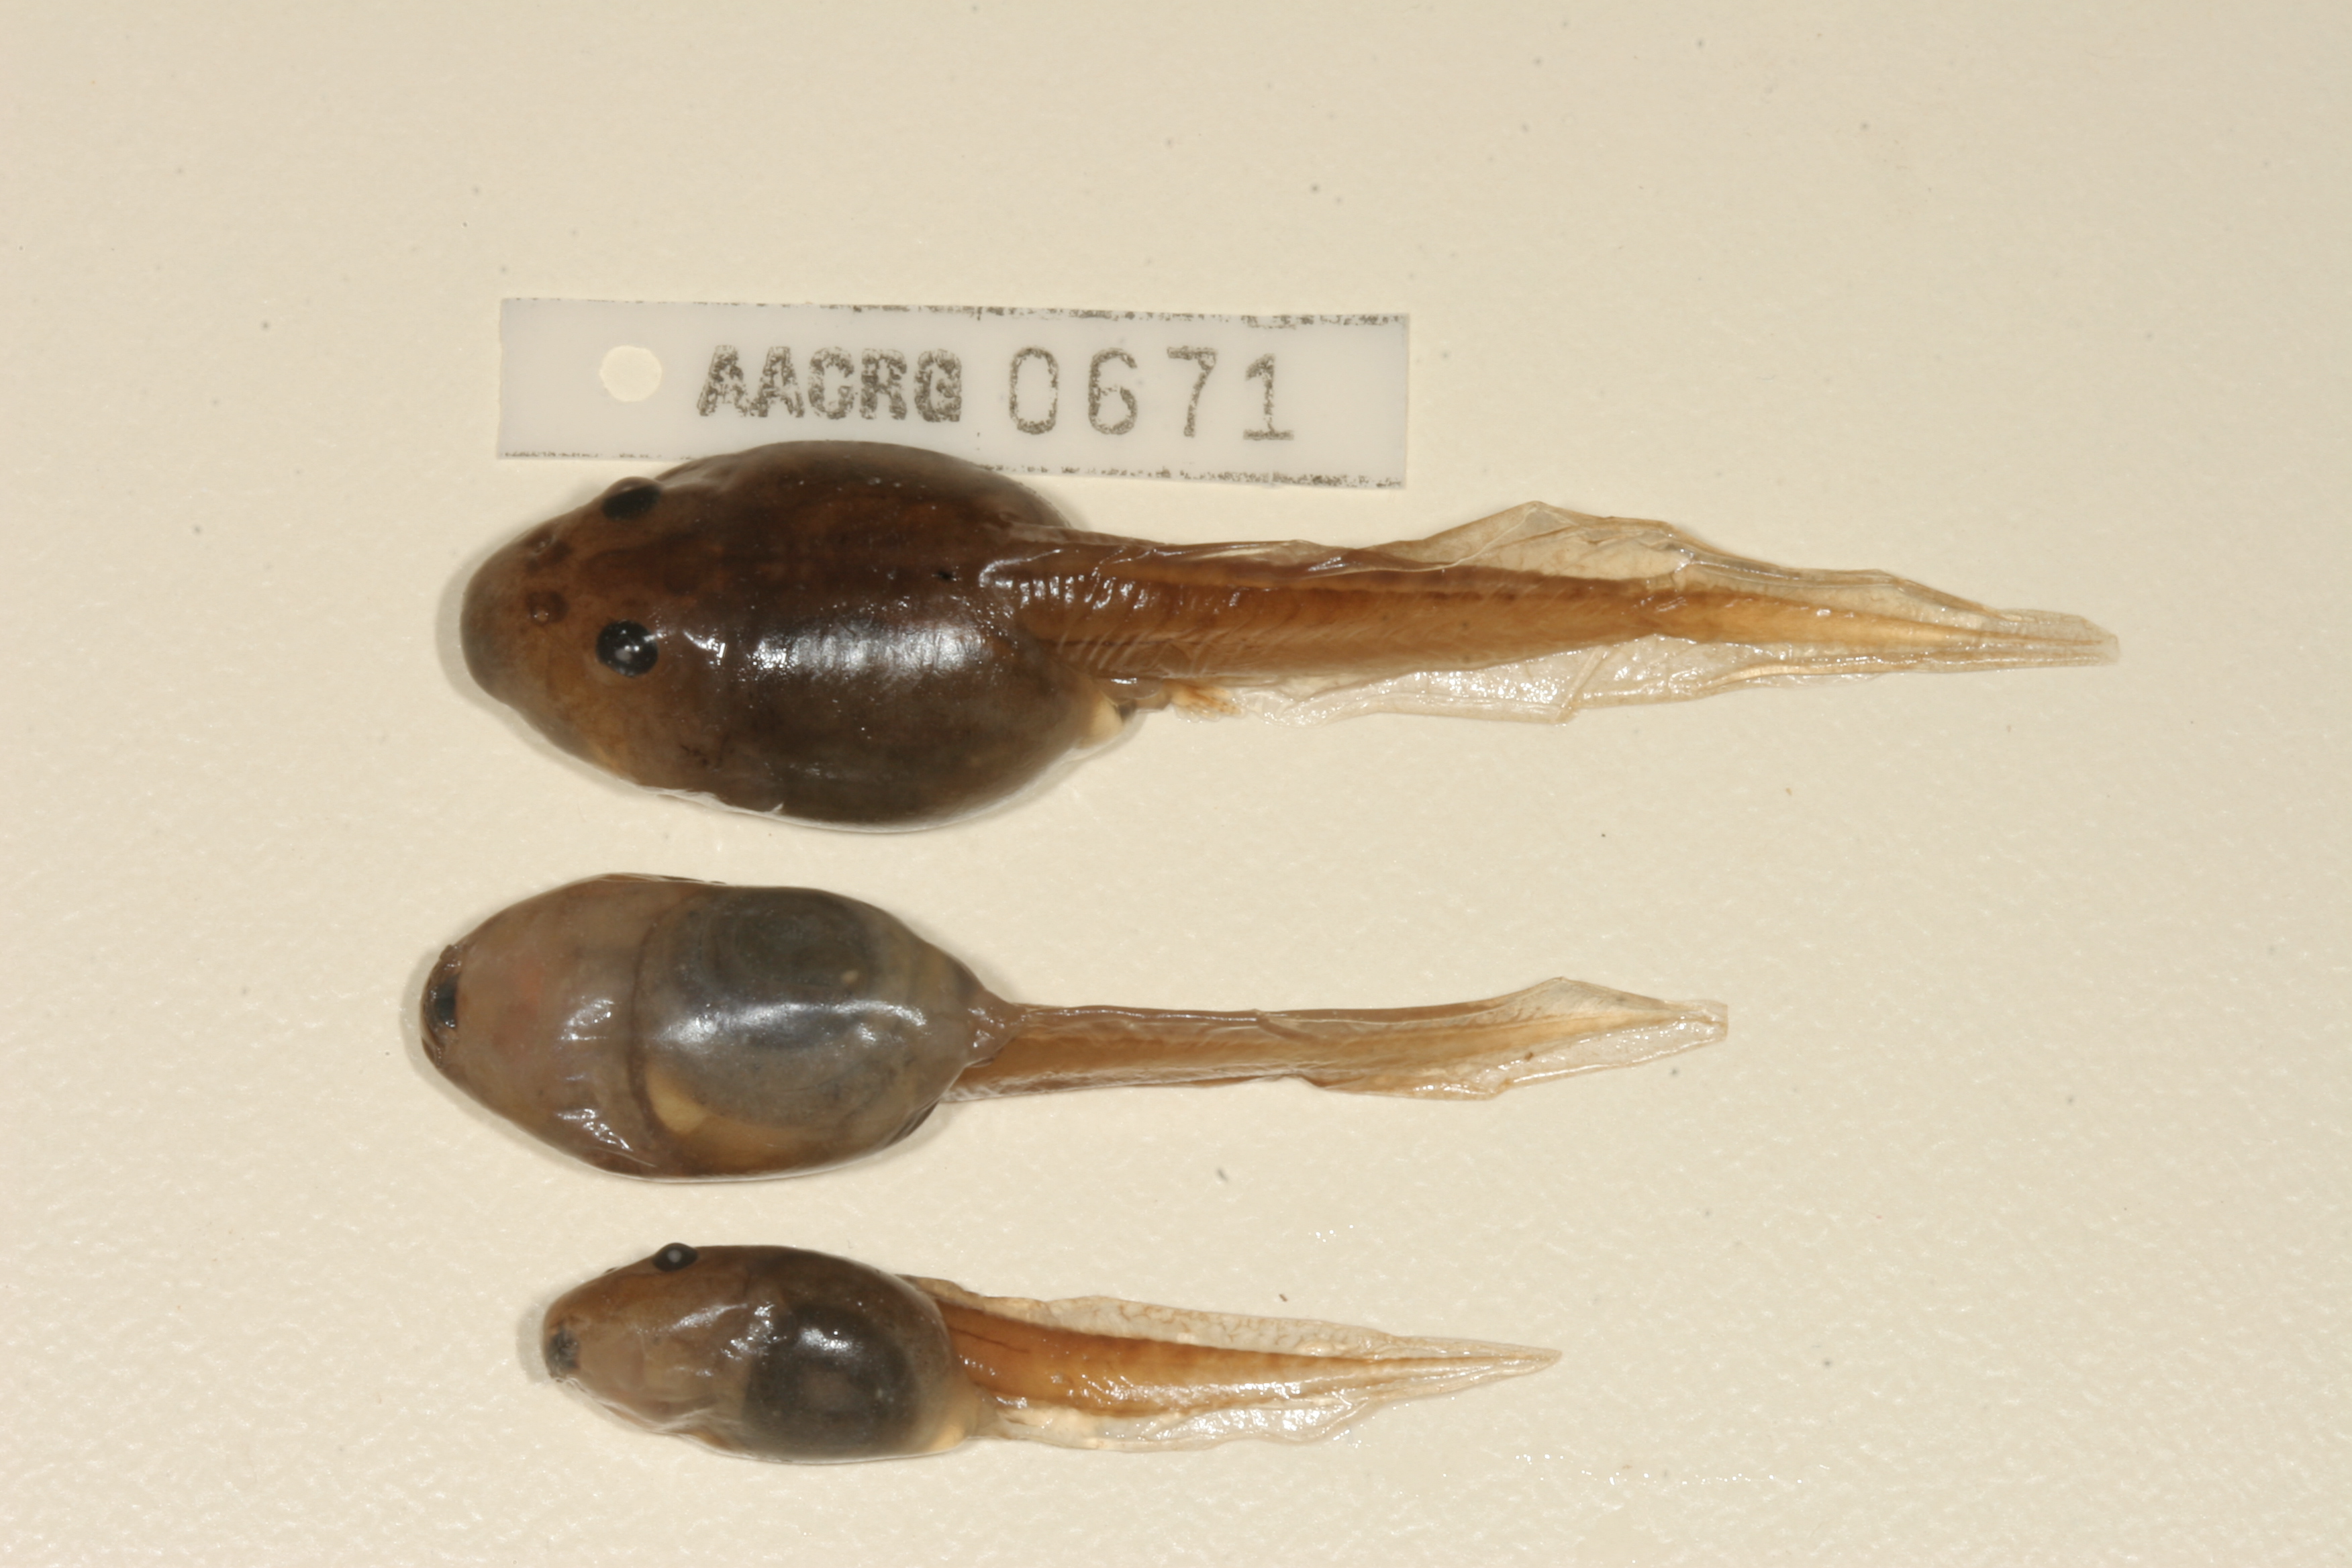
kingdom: Animalia
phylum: Chordata
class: Amphibia
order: Anura
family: Pyxicephalidae
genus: Strongylopus
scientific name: Strongylopus grayii
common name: Gray's stream frog
